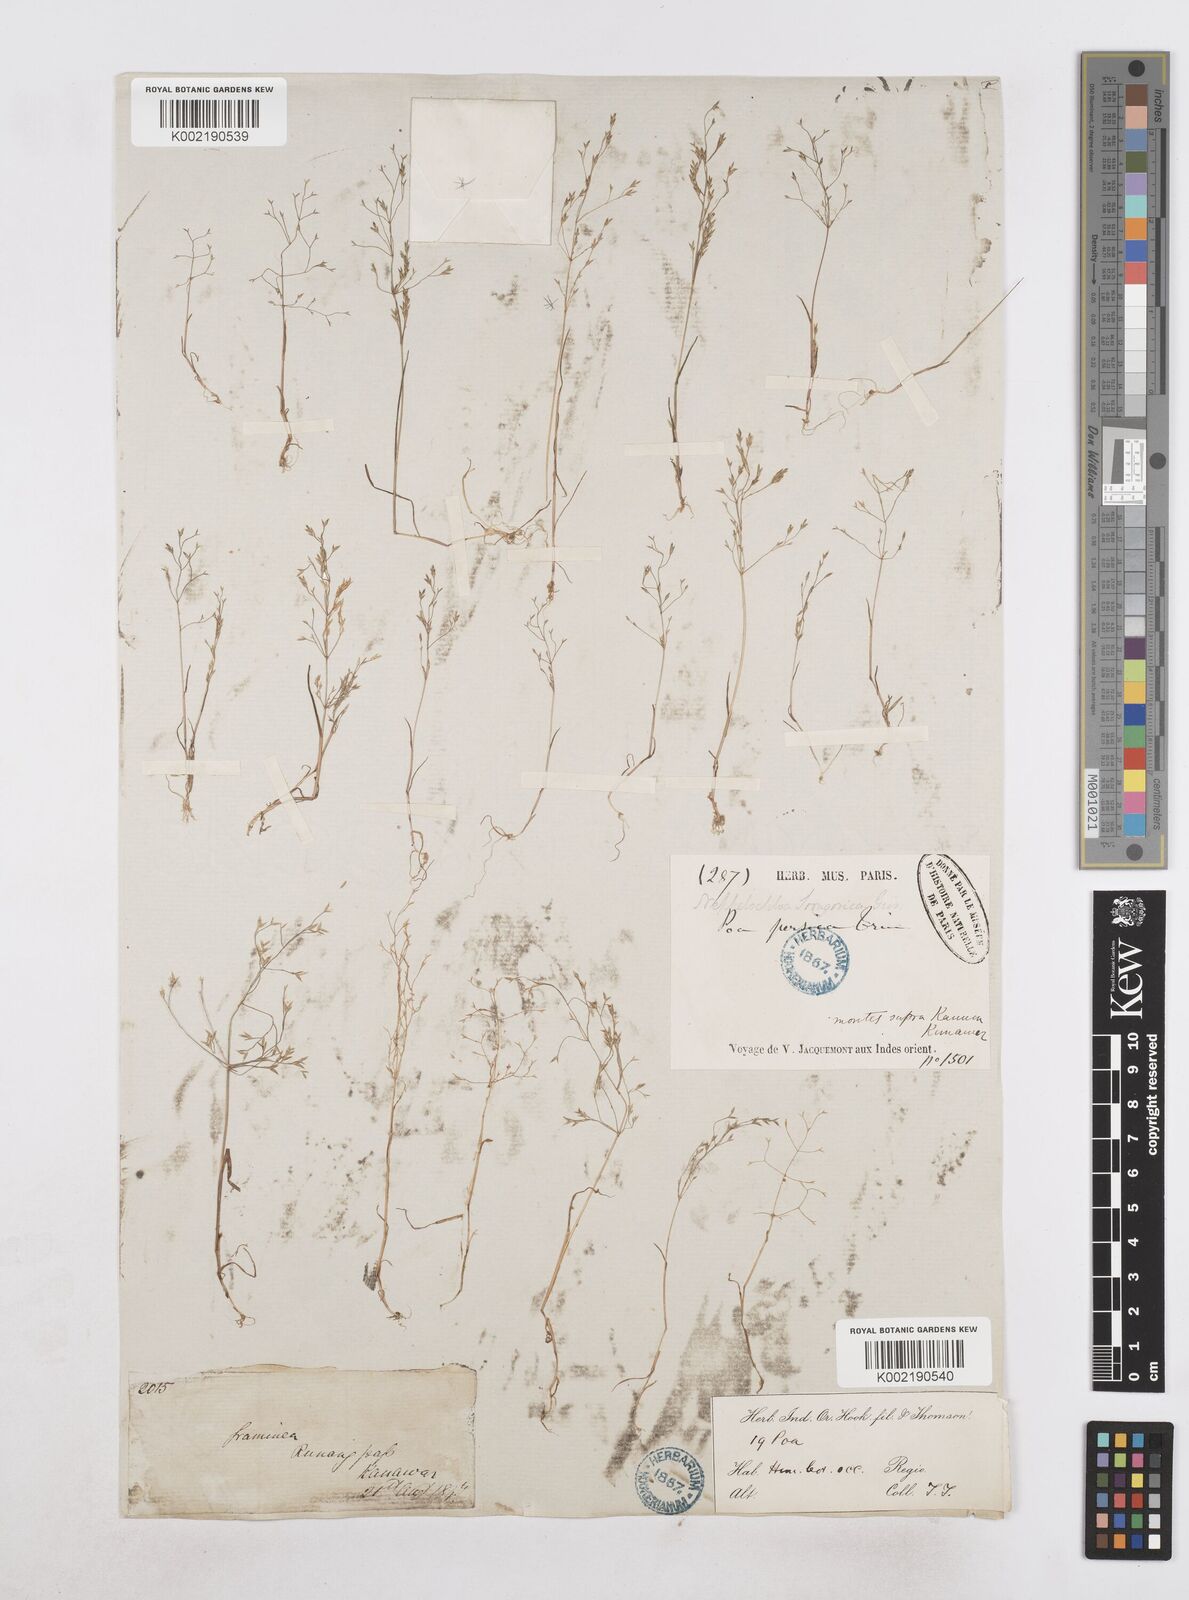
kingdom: Plantae
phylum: Tracheophyta
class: Liliopsida
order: Poales
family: Poaceae
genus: Poa
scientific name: Poa diaphora
